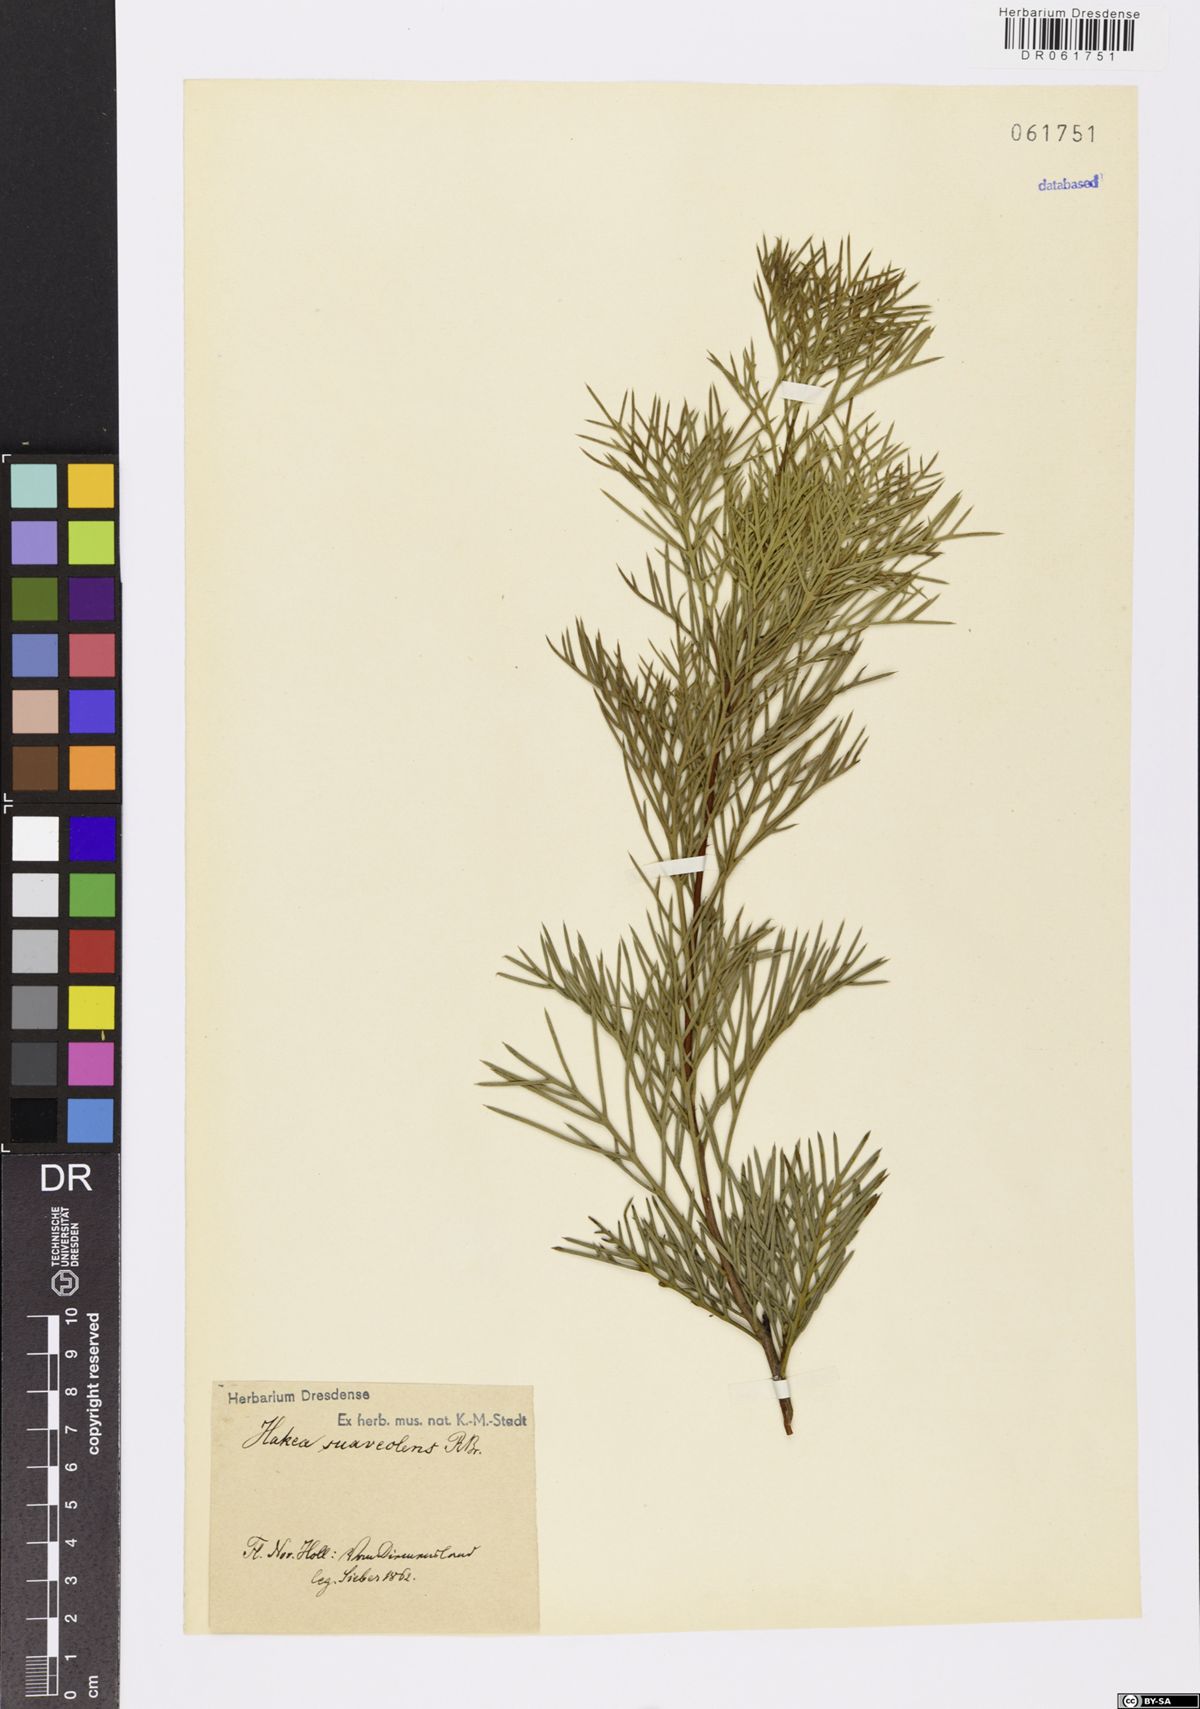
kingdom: Plantae
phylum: Tracheophyta
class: Magnoliopsida
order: Proteales
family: Proteaceae
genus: Hakea
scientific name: Hakea drupacea
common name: Sweet hakea
